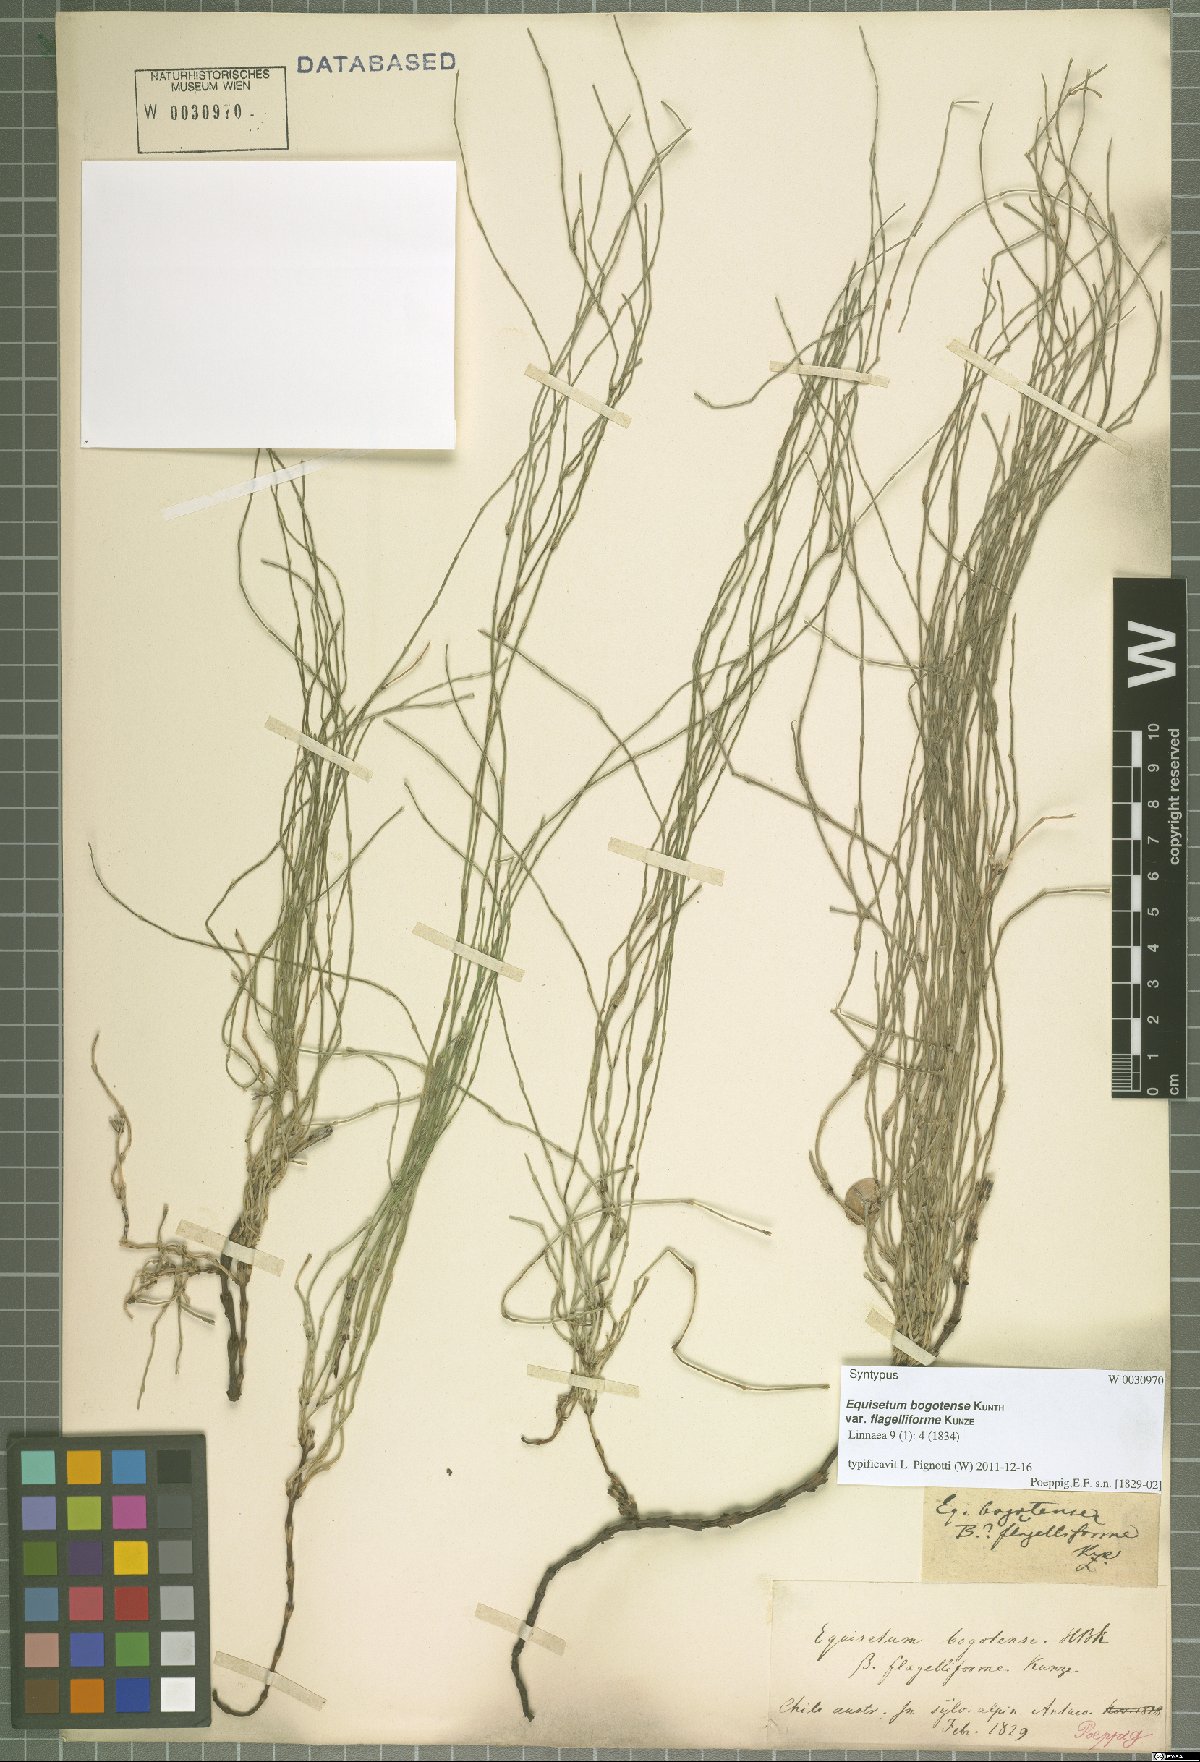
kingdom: Plantae
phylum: Tracheophyta
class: Polypodiopsida
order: Equisetales
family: Equisetaceae
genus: Equisetum
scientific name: Equisetum bogotense
